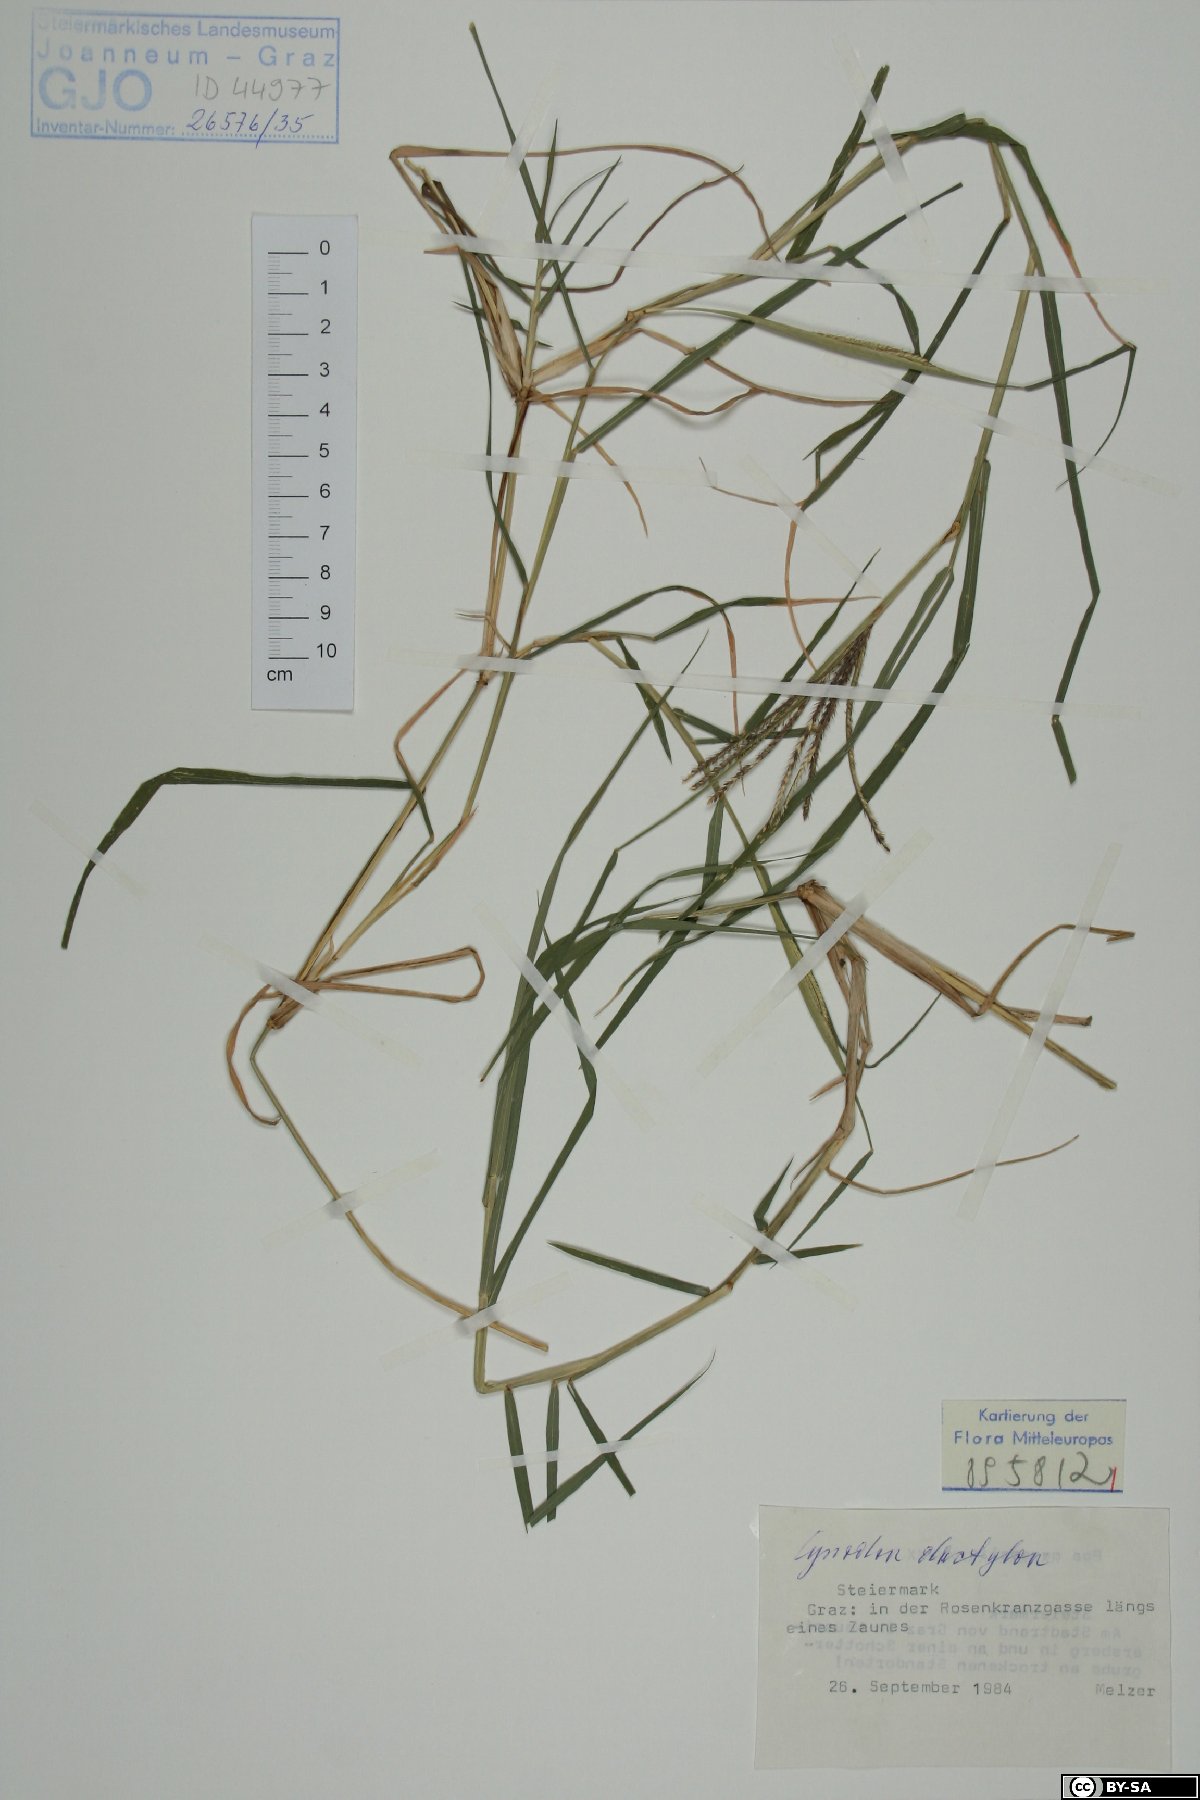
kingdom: Plantae
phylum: Tracheophyta
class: Liliopsida
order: Poales
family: Poaceae
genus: Cynodon
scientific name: Cynodon dactylon
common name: Bermuda grass
